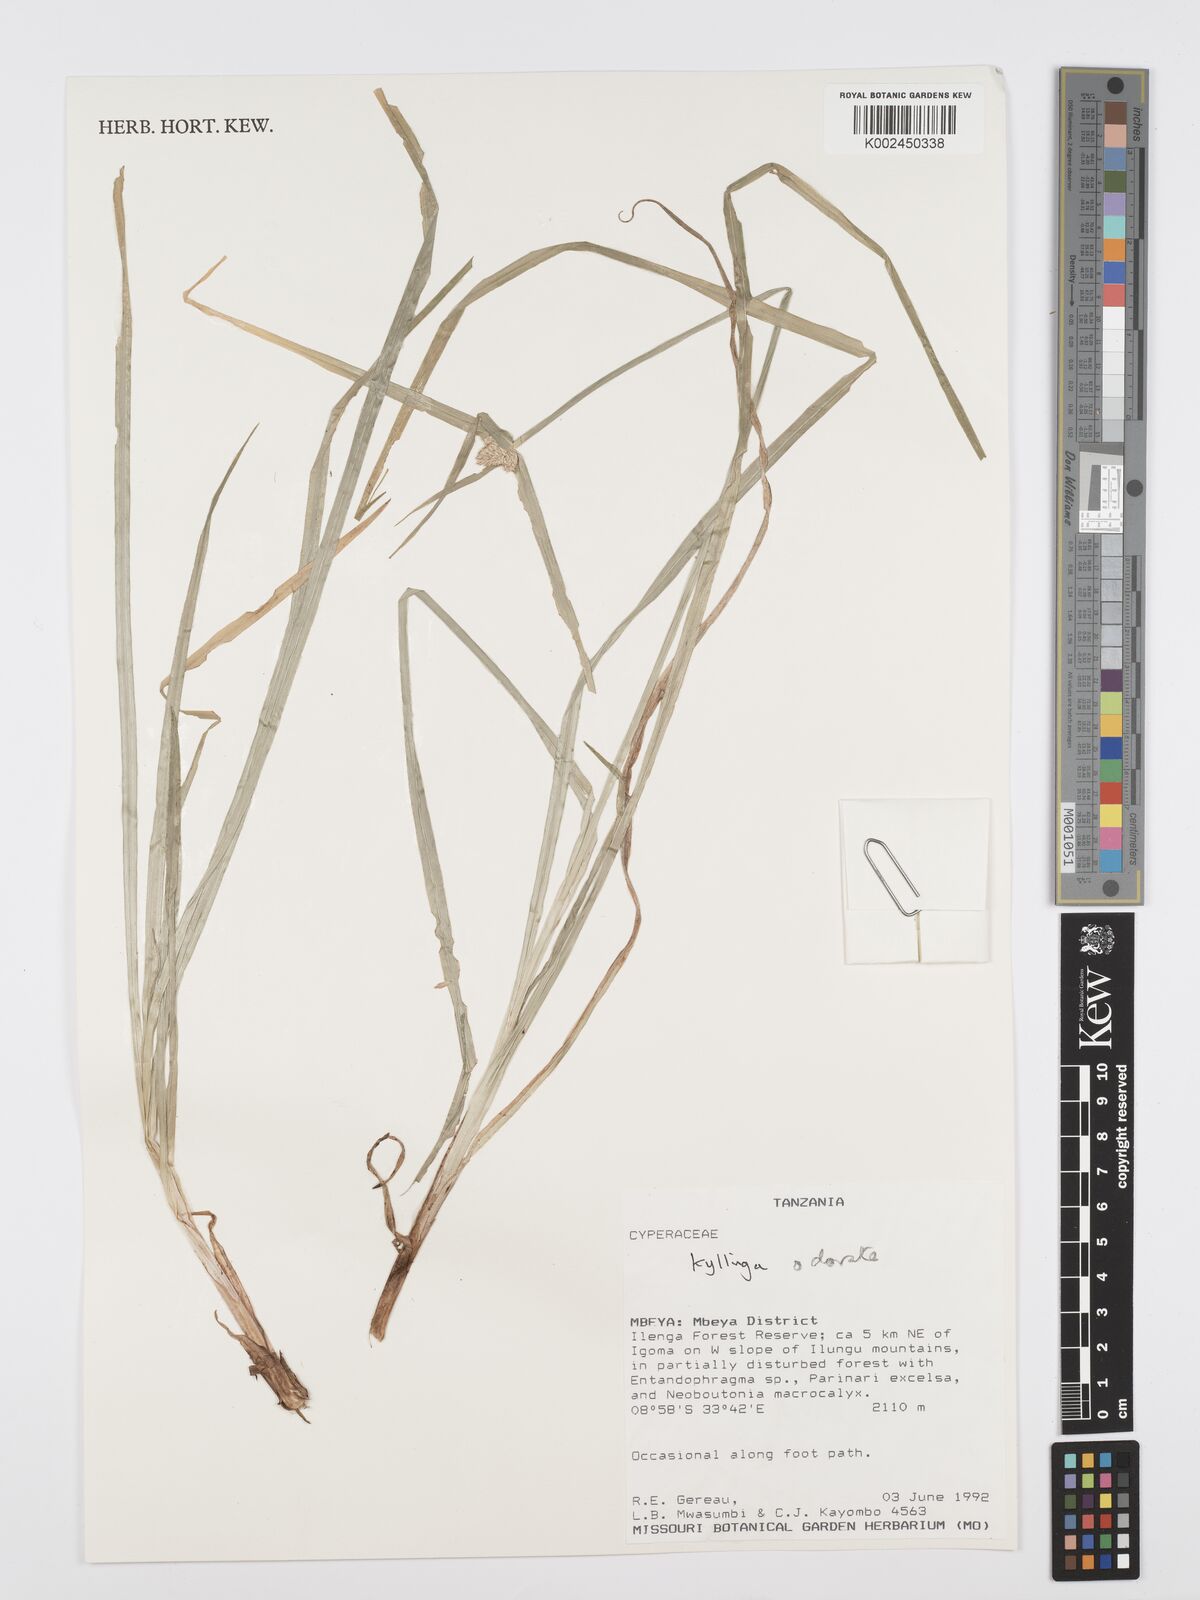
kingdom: Plantae
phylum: Tracheophyta
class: Liliopsida
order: Poales
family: Cyperaceae
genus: Cyperus
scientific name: Cyperus
